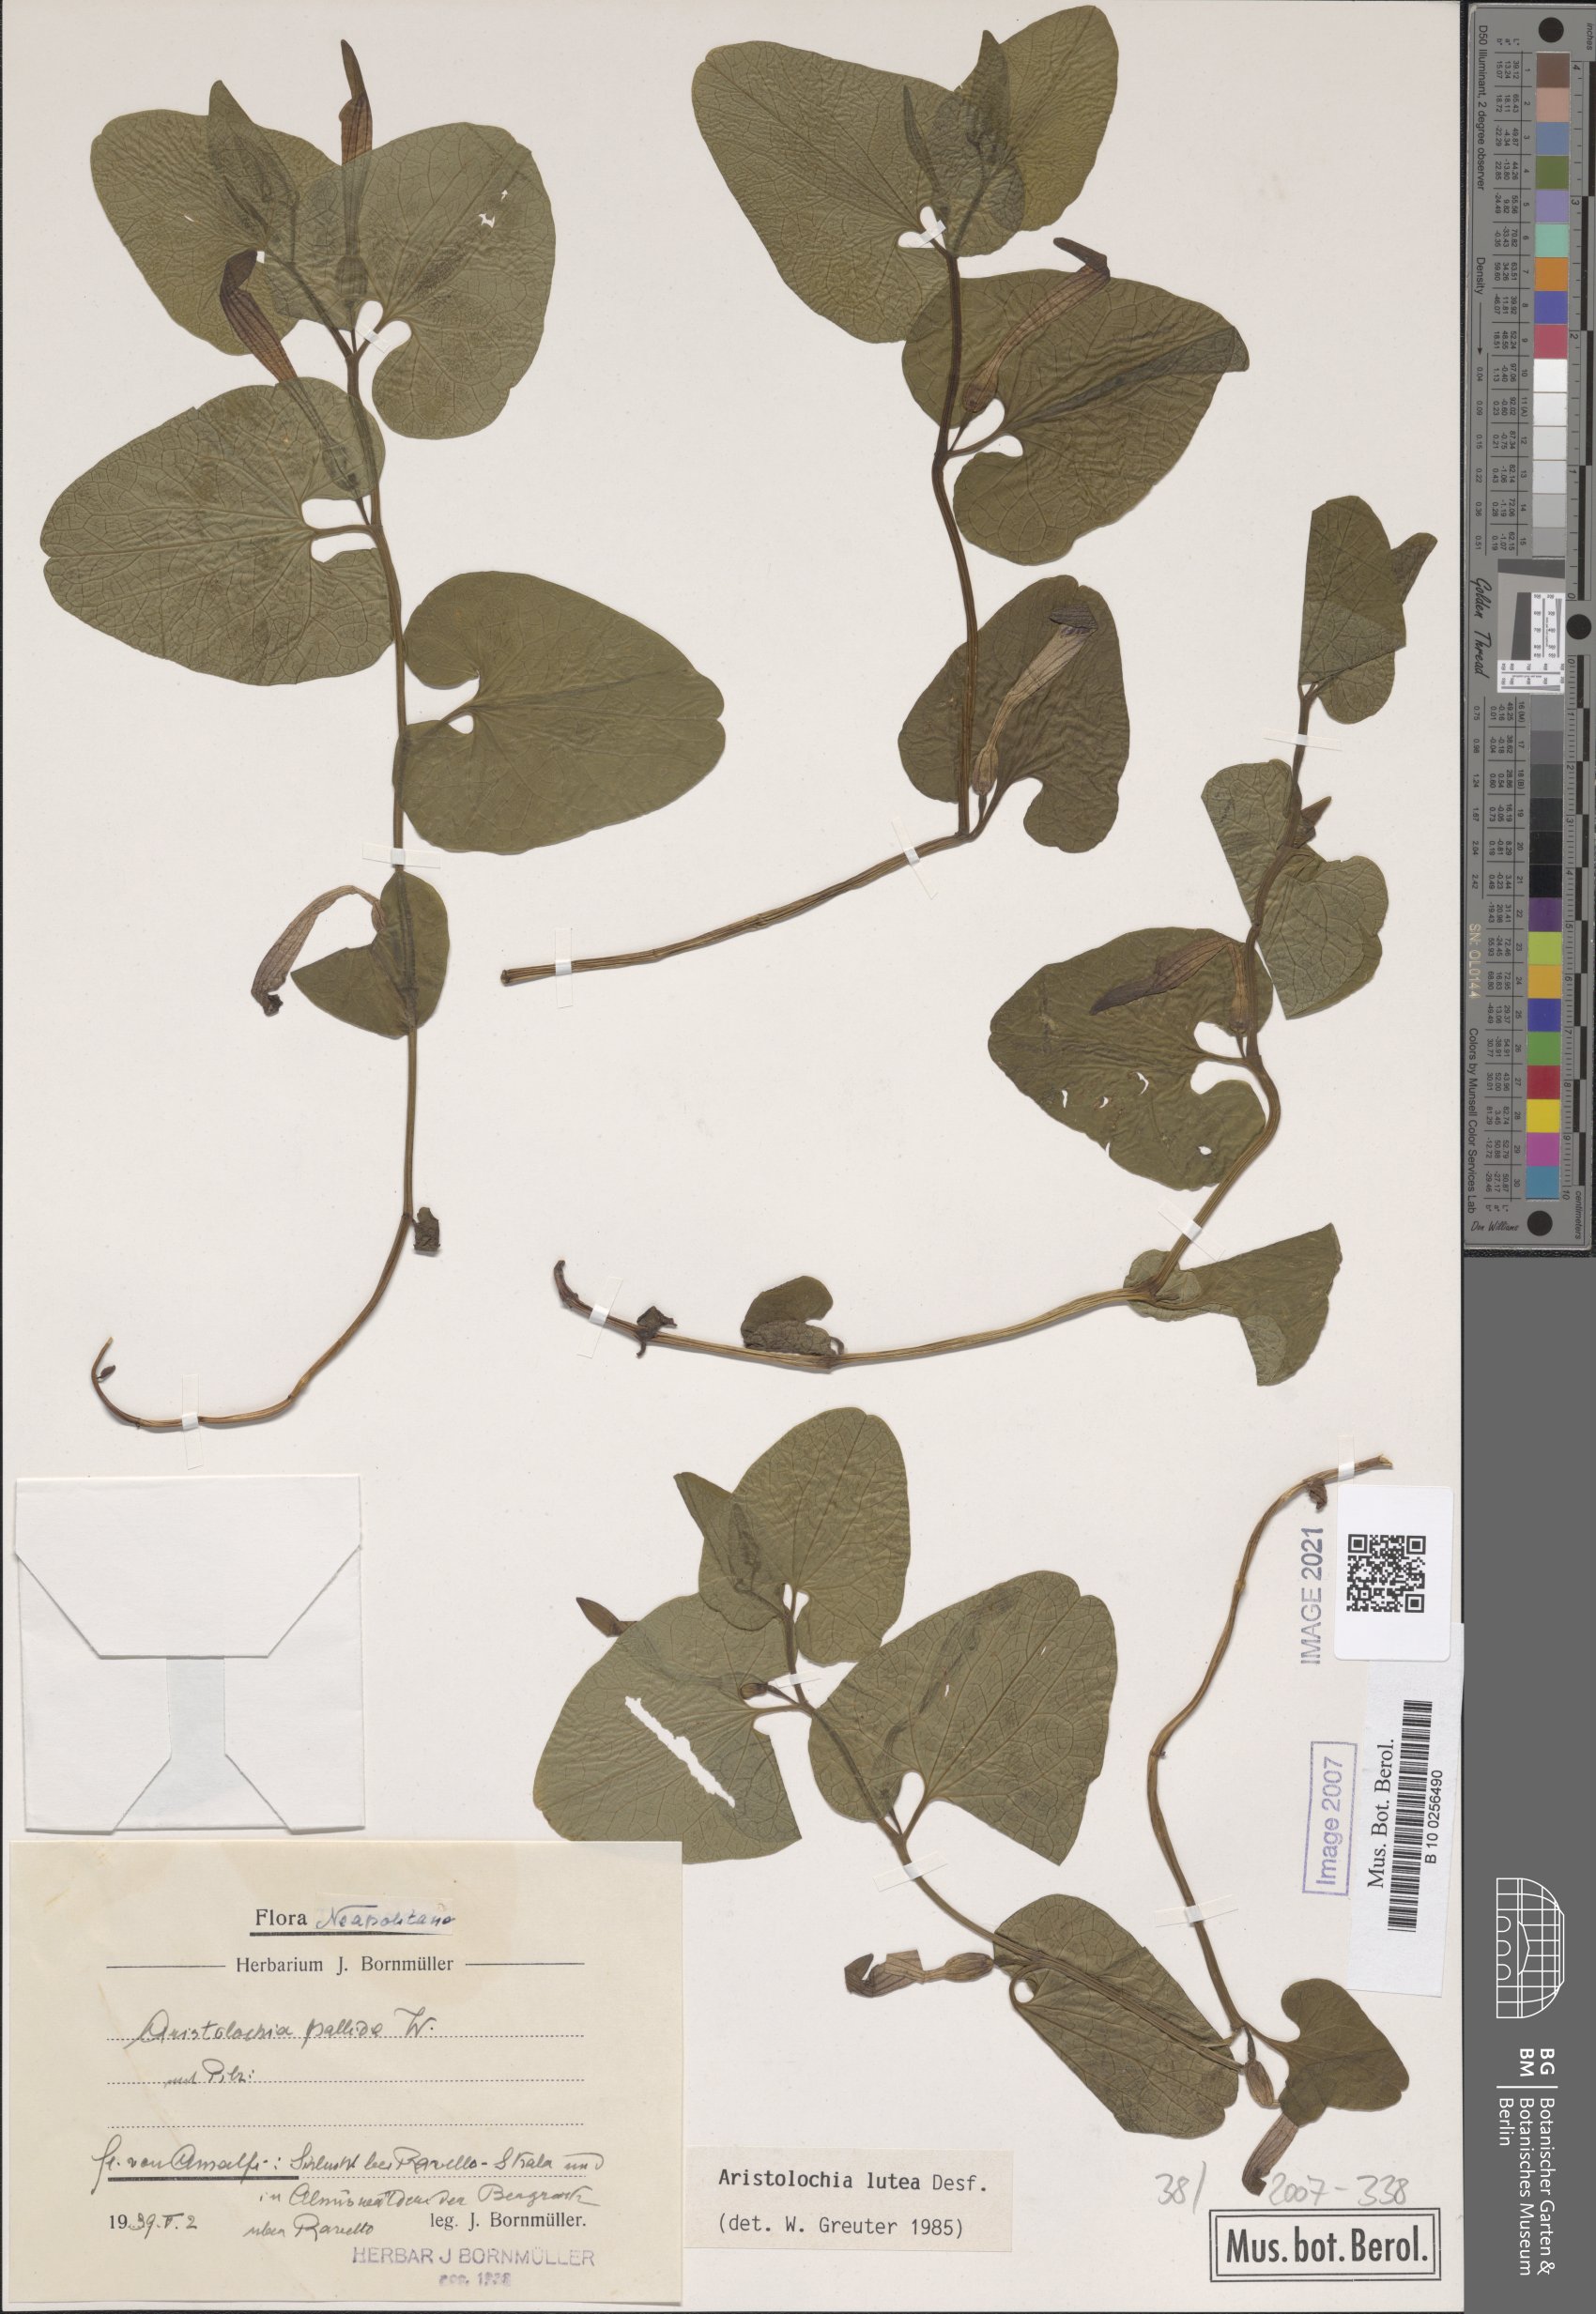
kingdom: Plantae
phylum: Tracheophyta
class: Magnoliopsida
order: Piperales
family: Aristolochiaceae
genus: Aristolochia
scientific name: Aristolochia lutea
